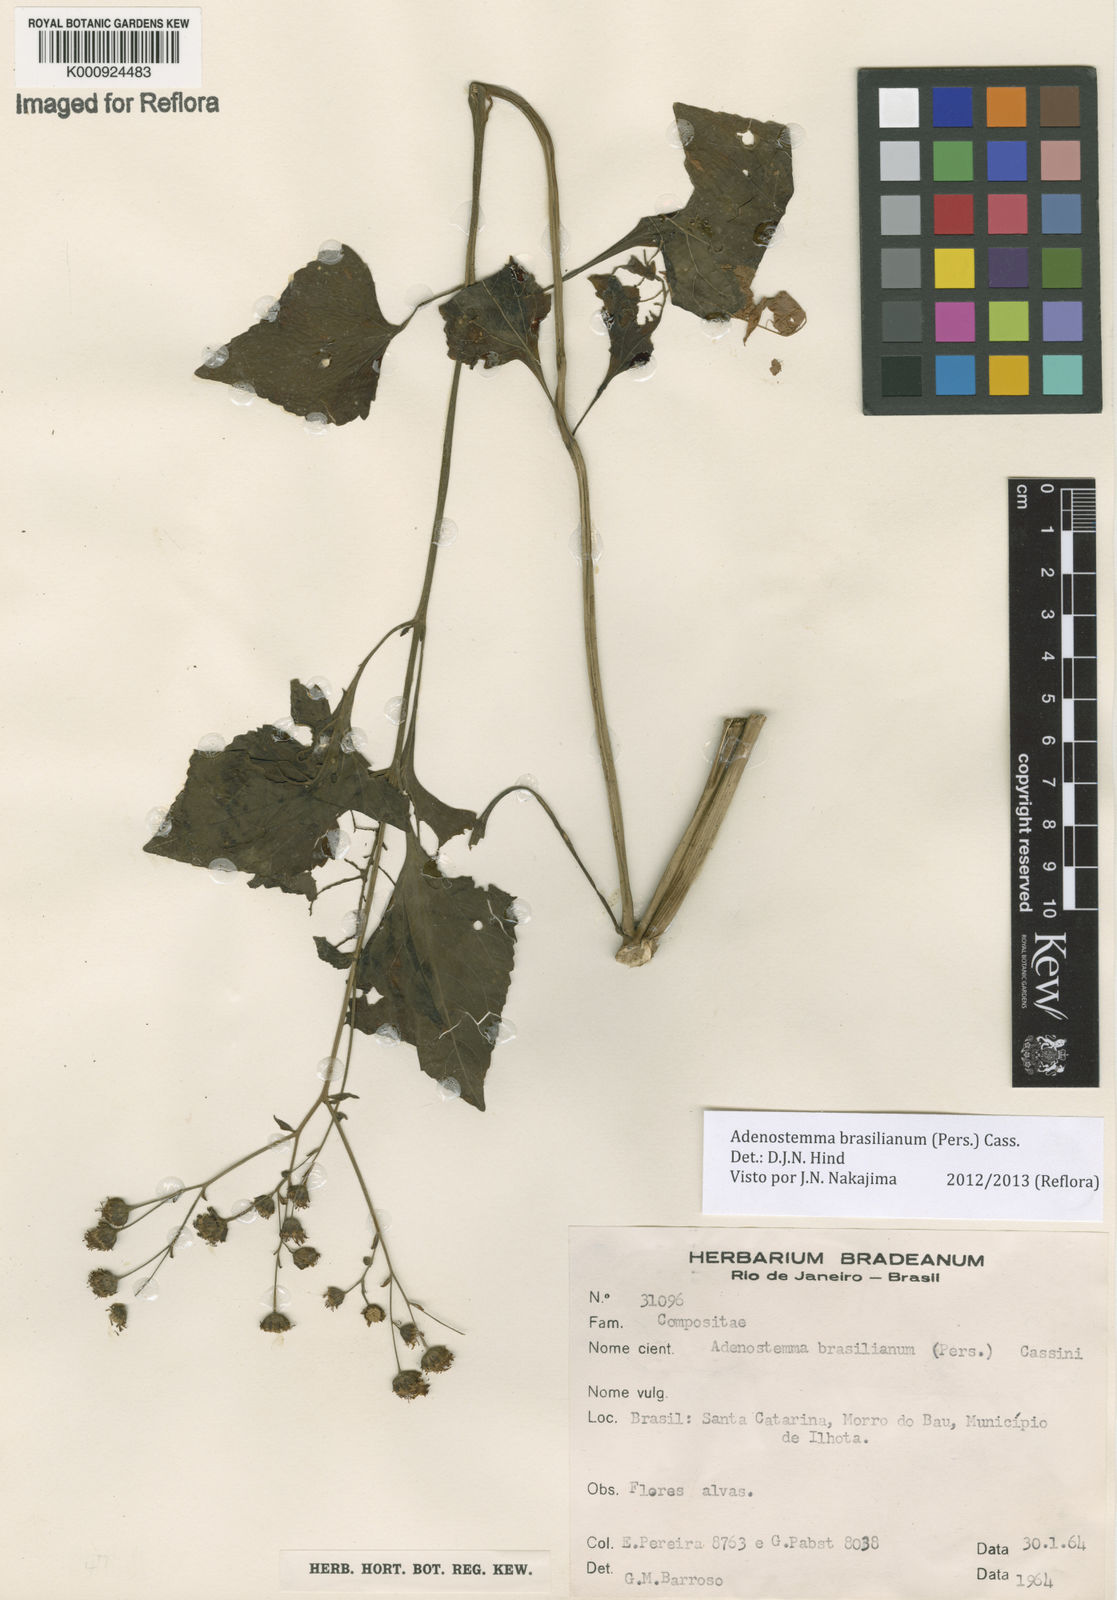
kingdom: Plantae
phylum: Tracheophyta
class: Magnoliopsida
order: Asterales
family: Asteraceae
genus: Adenostemma
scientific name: Adenostemma brasilianum
